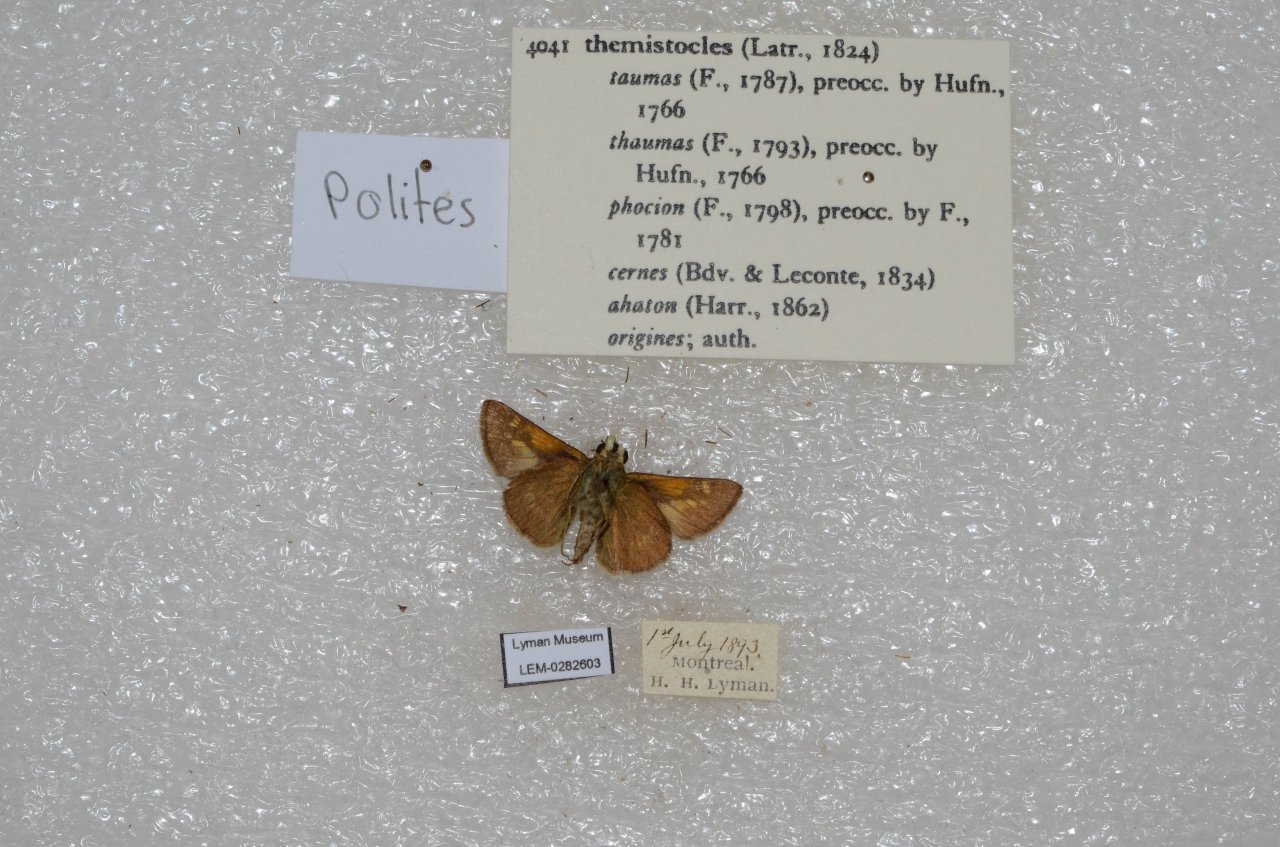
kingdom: Animalia
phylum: Arthropoda
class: Insecta
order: Lepidoptera
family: Hesperiidae
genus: Polites
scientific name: Polites themistocles
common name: Tawny-edged Skipper
